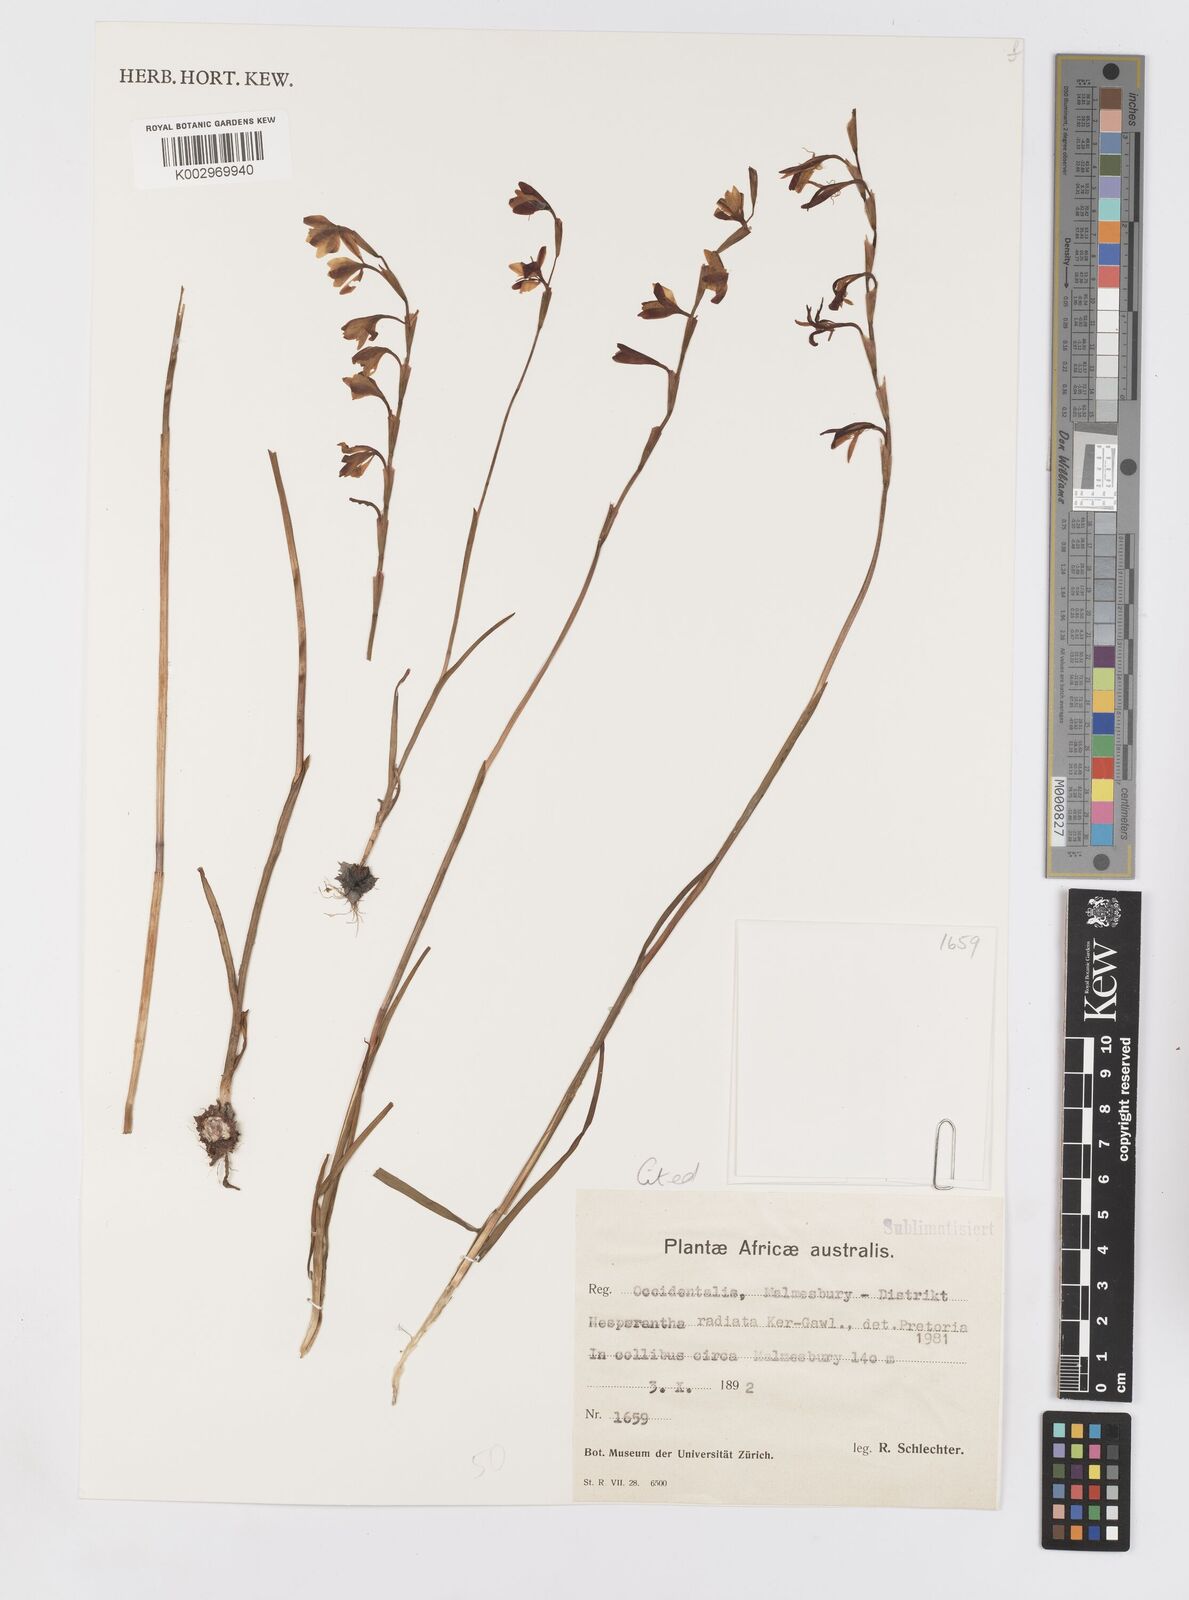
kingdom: Plantae
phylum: Tracheophyta
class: Liliopsida
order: Asparagales
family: Iridaceae
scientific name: Iridaceae
